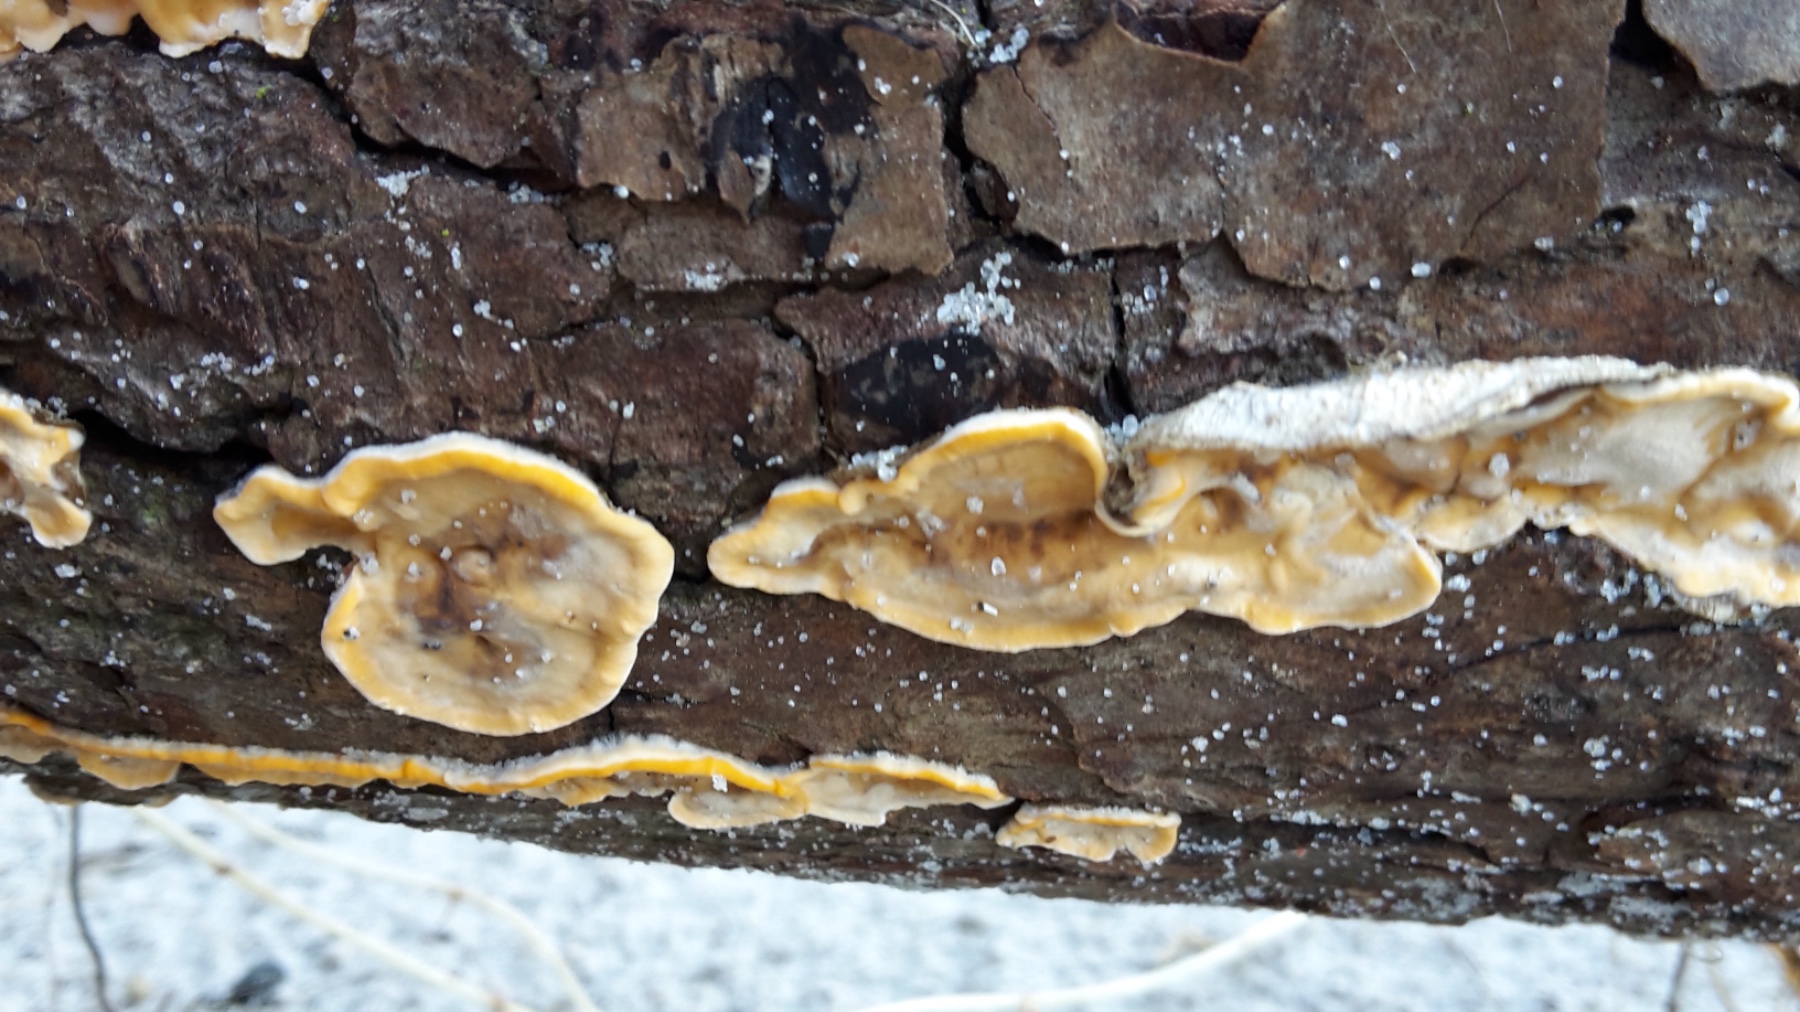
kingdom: Fungi
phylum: Basidiomycota
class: Agaricomycetes
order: Russulales
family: Stereaceae
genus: Stereum
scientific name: Stereum hirsutum
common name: håret lædersvamp
